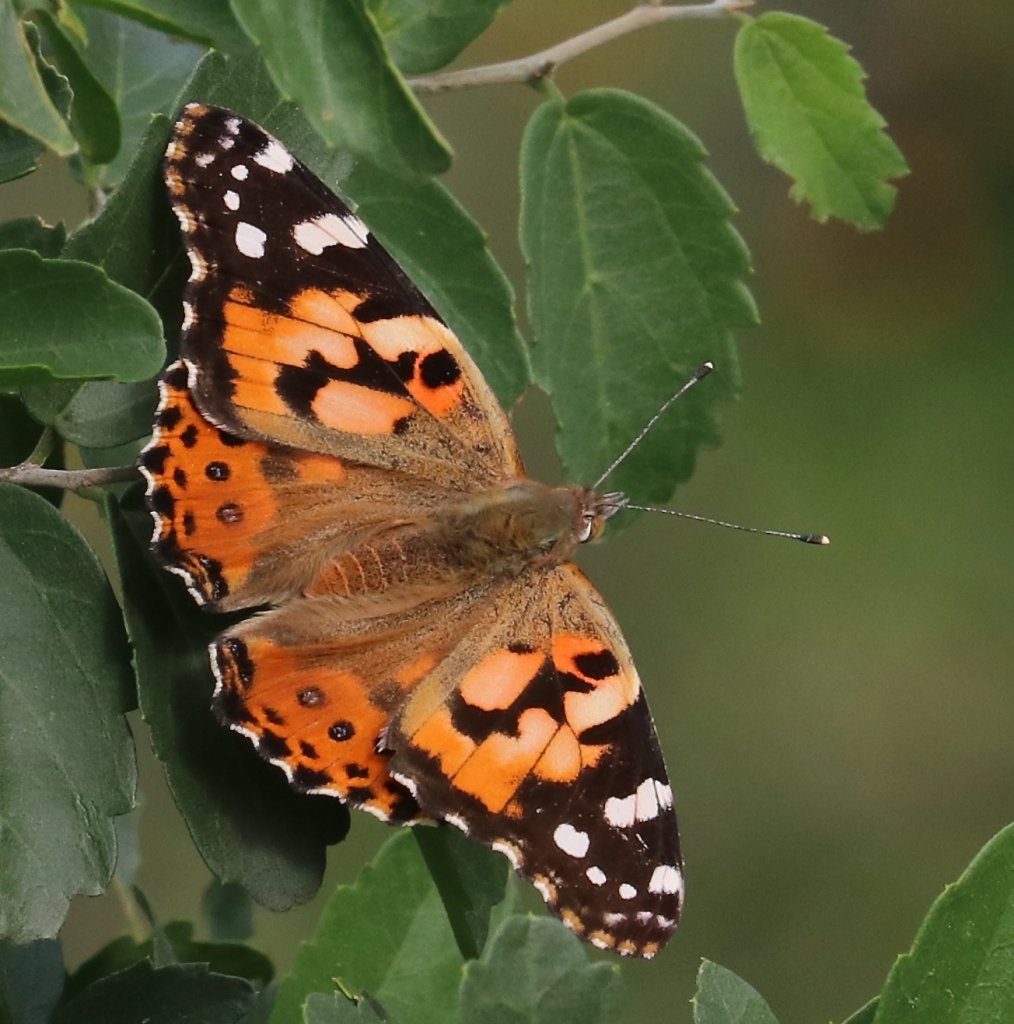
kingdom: Animalia
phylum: Arthropoda
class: Insecta
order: Lepidoptera
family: Nymphalidae
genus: Vanessa
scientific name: Vanessa cardui
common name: Painted Lady
